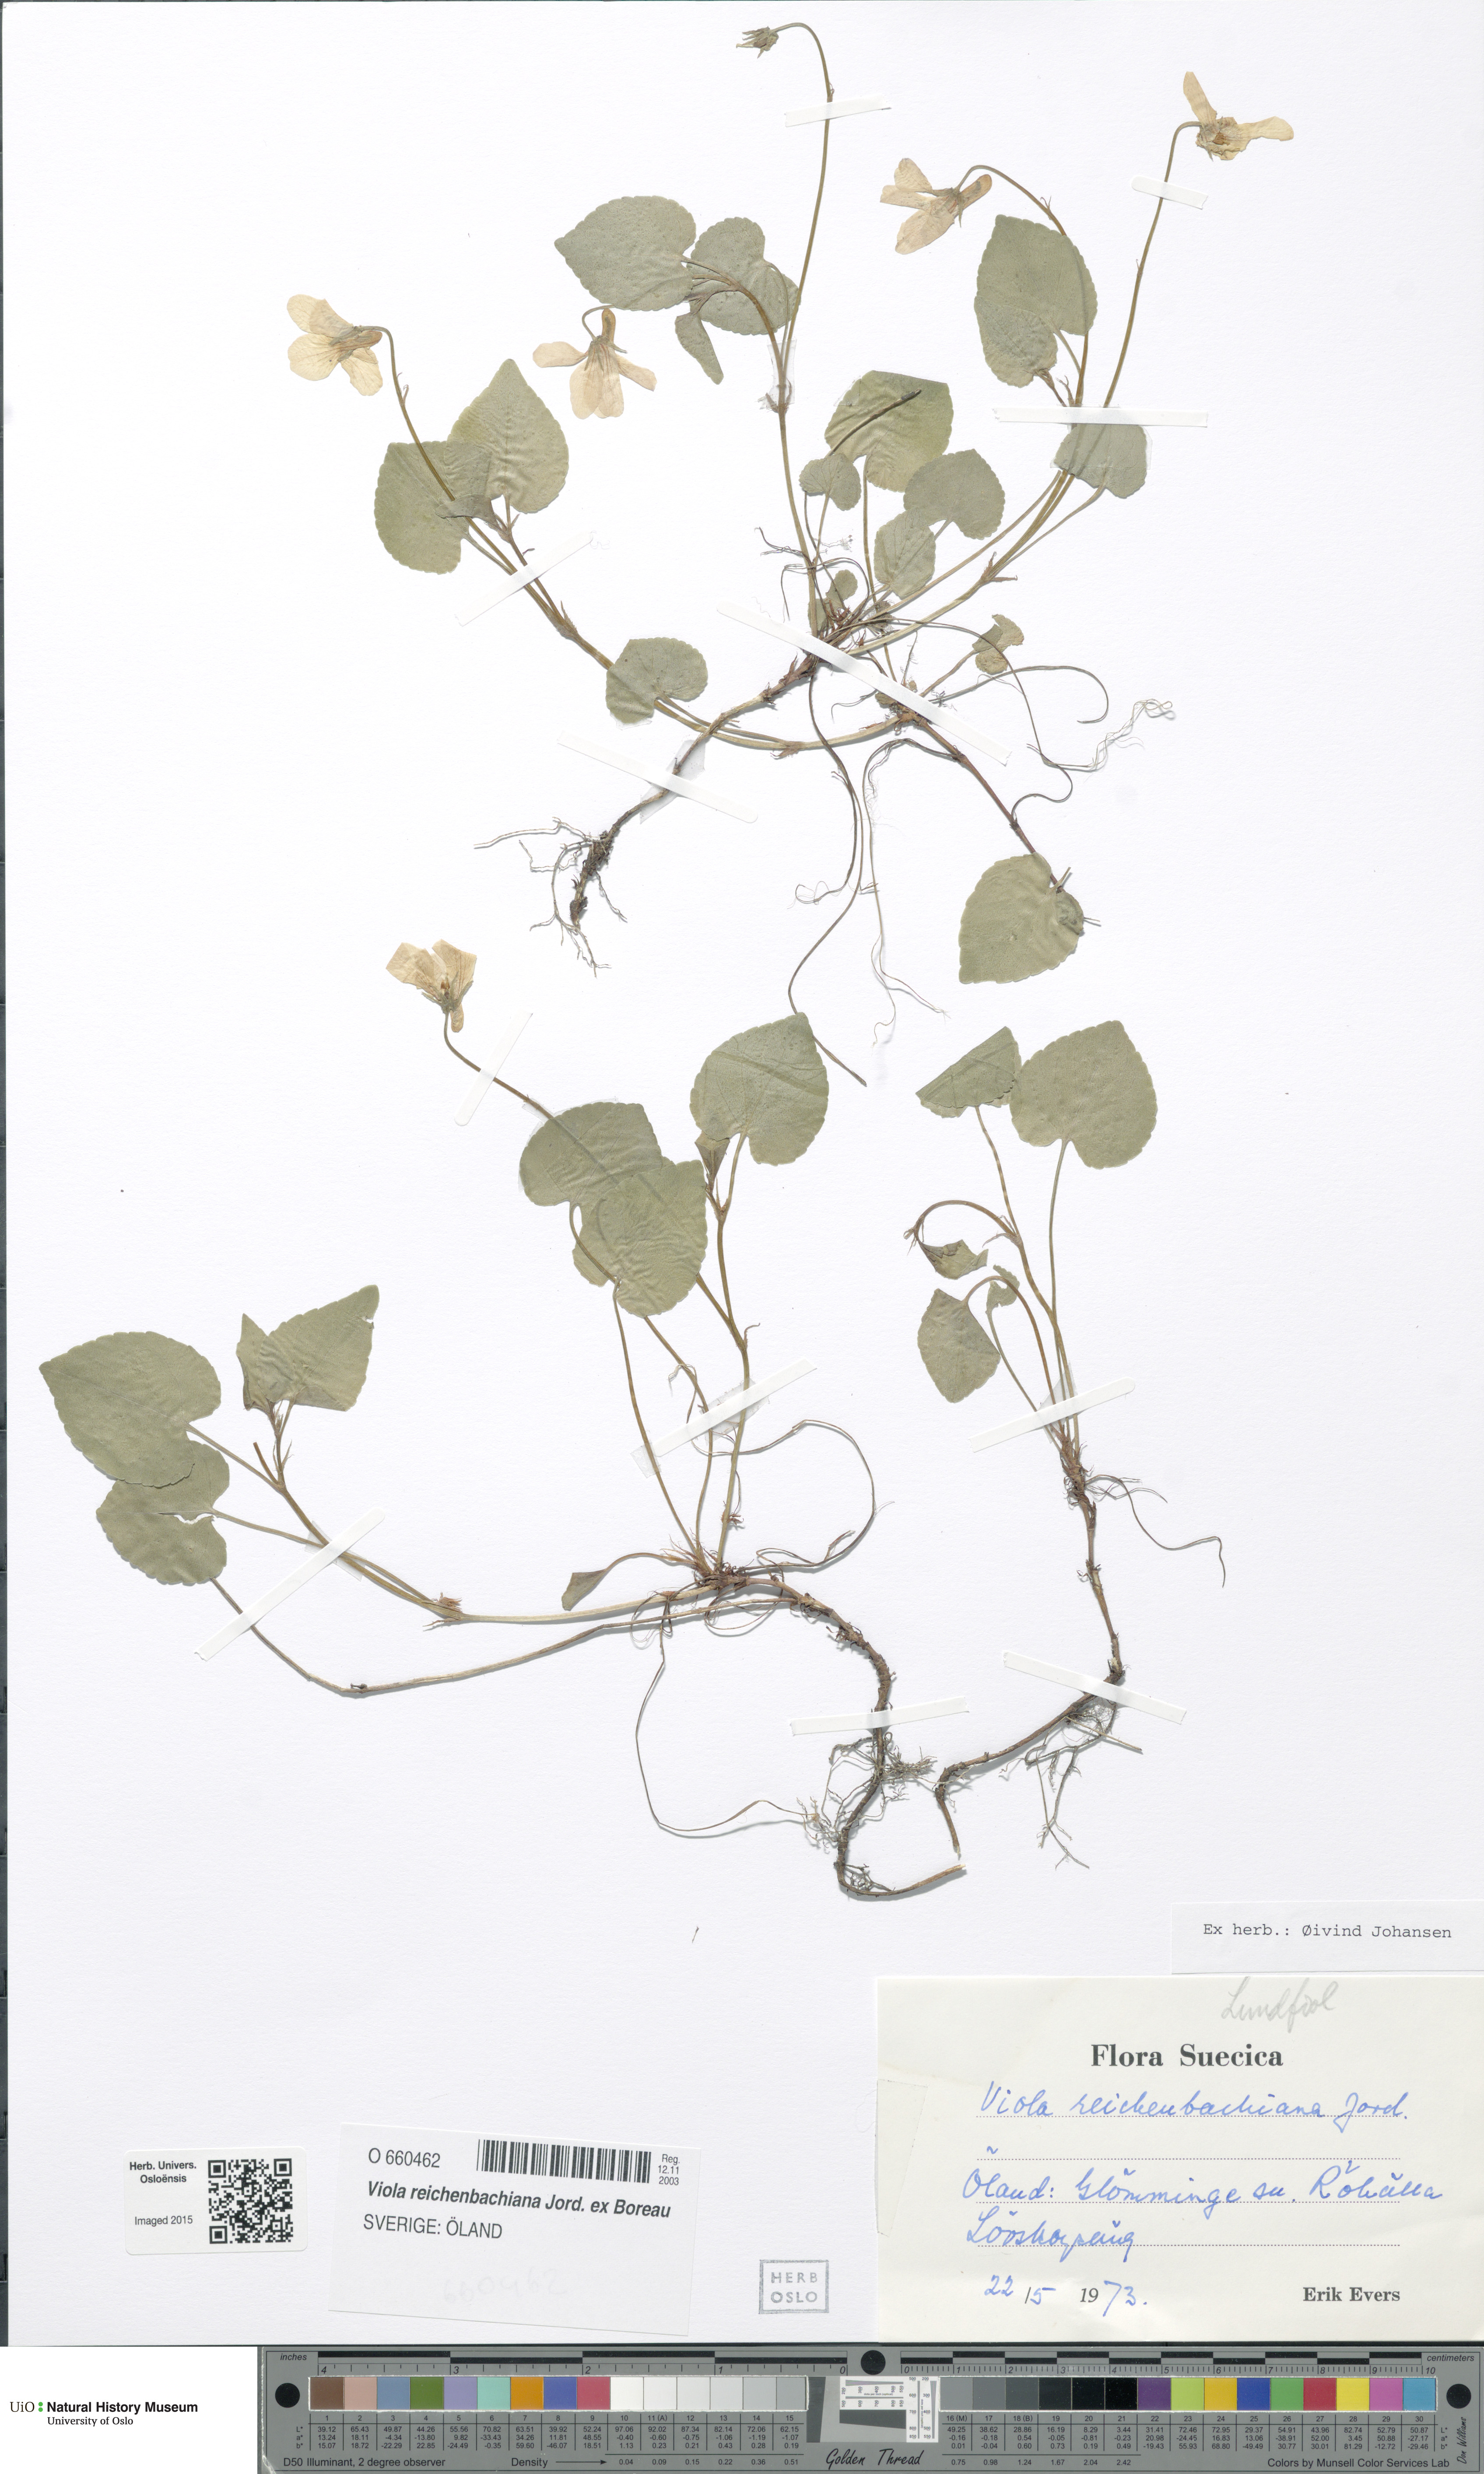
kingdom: Plantae
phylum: Tracheophyta
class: Magnoliopsida
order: Malpighiales
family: Violaceae
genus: Viola
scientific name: Viola reichenbachiana
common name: Early dog-violet
